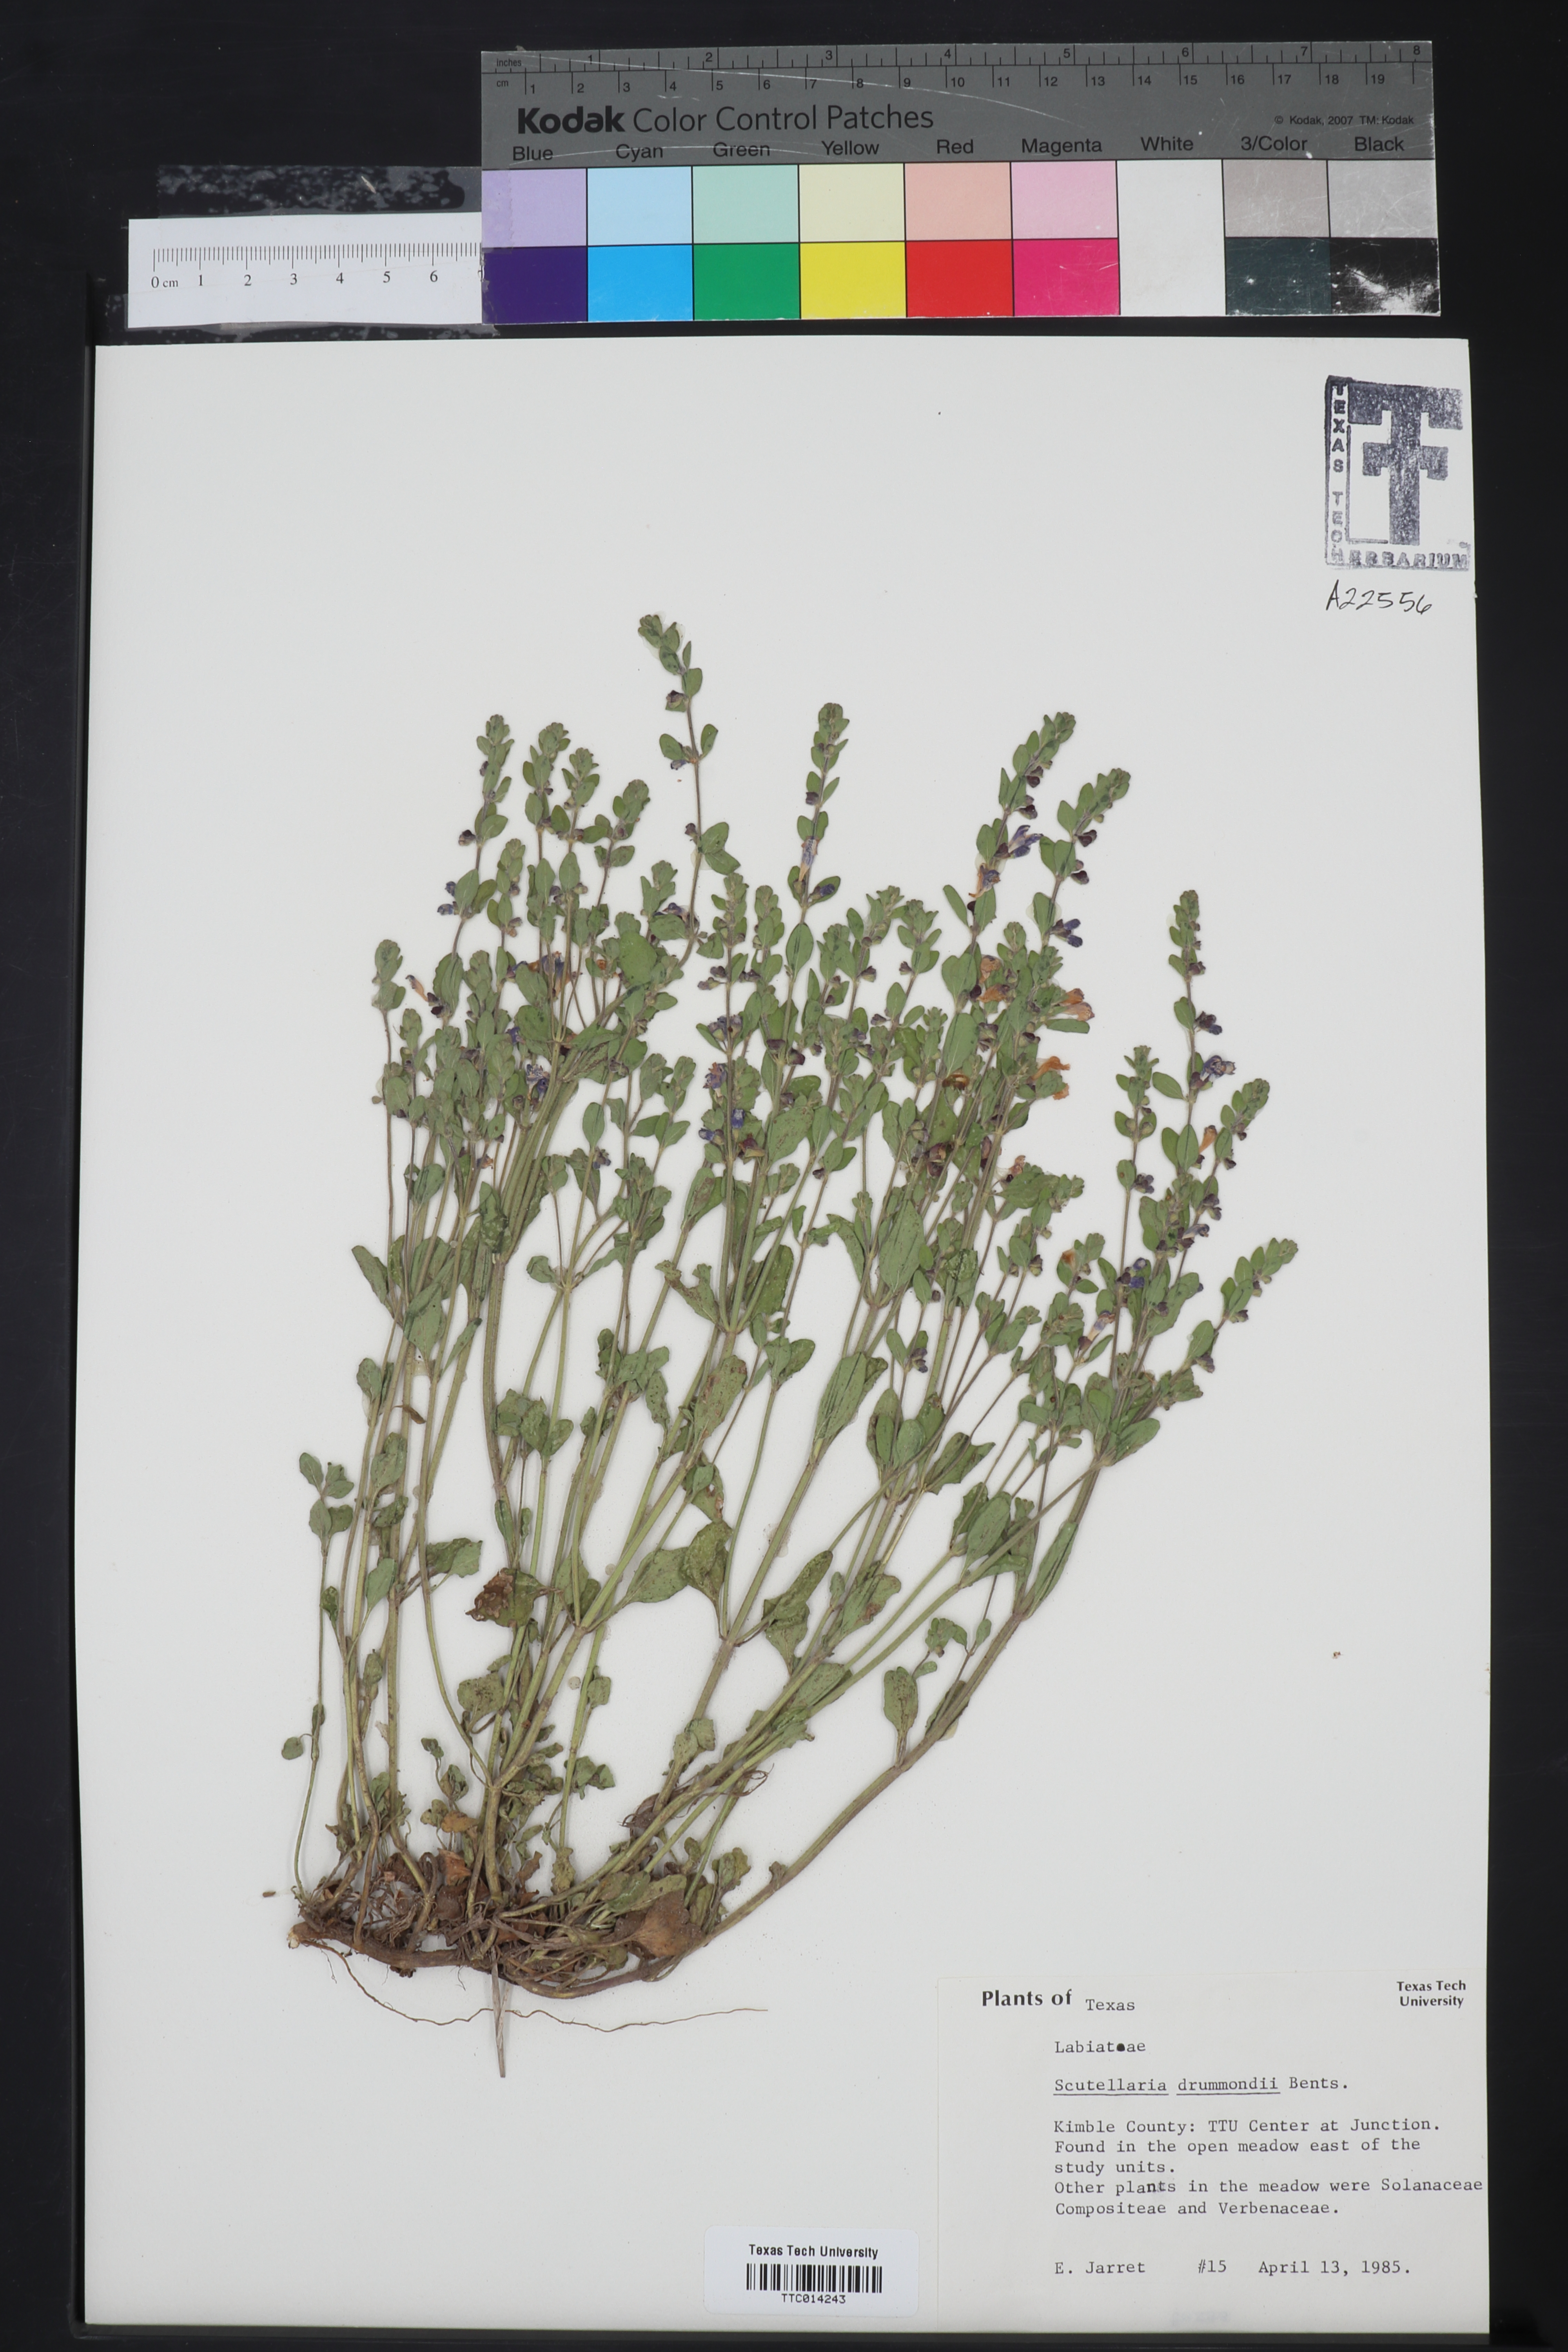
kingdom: Plantae
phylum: Tracheophyta
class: Magnoliopsida
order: Lamiales
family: Lamiaceae
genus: Scutellaria
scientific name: Scutellaria drummondii
